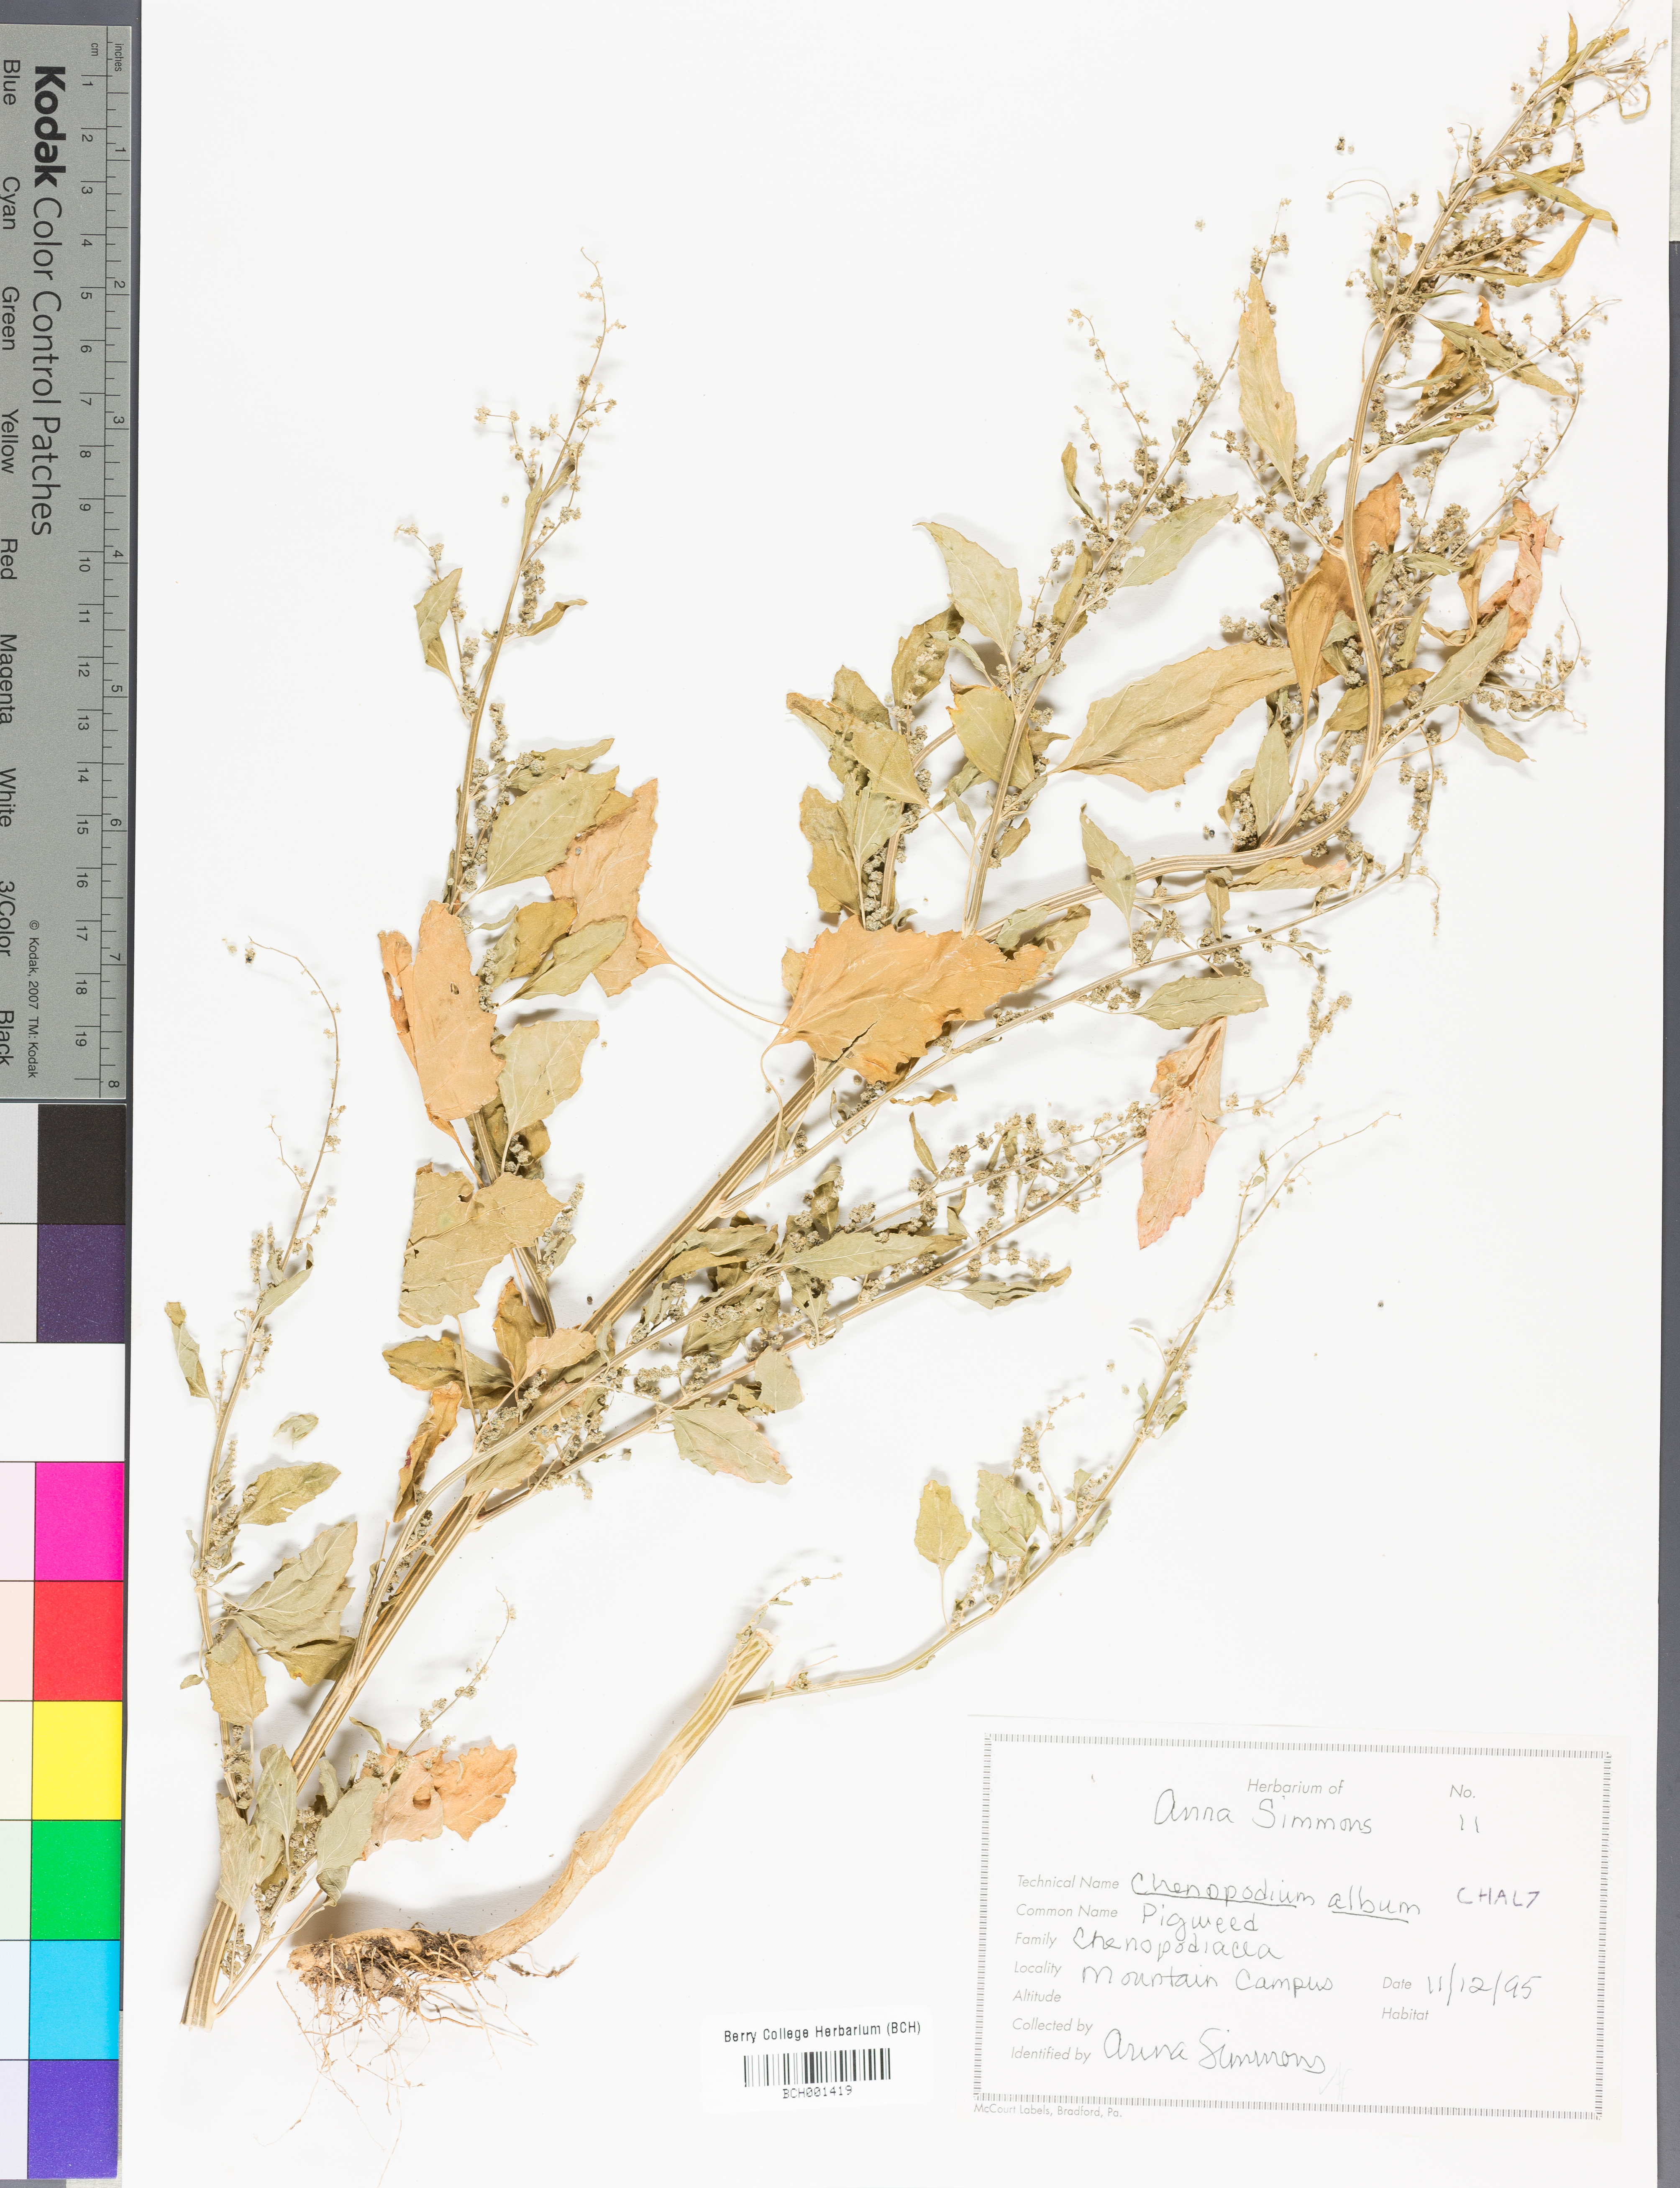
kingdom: Plantae
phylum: Tracheophyta
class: Magnoliopsida
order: Caryophyllales
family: Amaranthaceae
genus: Chenopodium
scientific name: Chenopodium album
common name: Fat-hen
